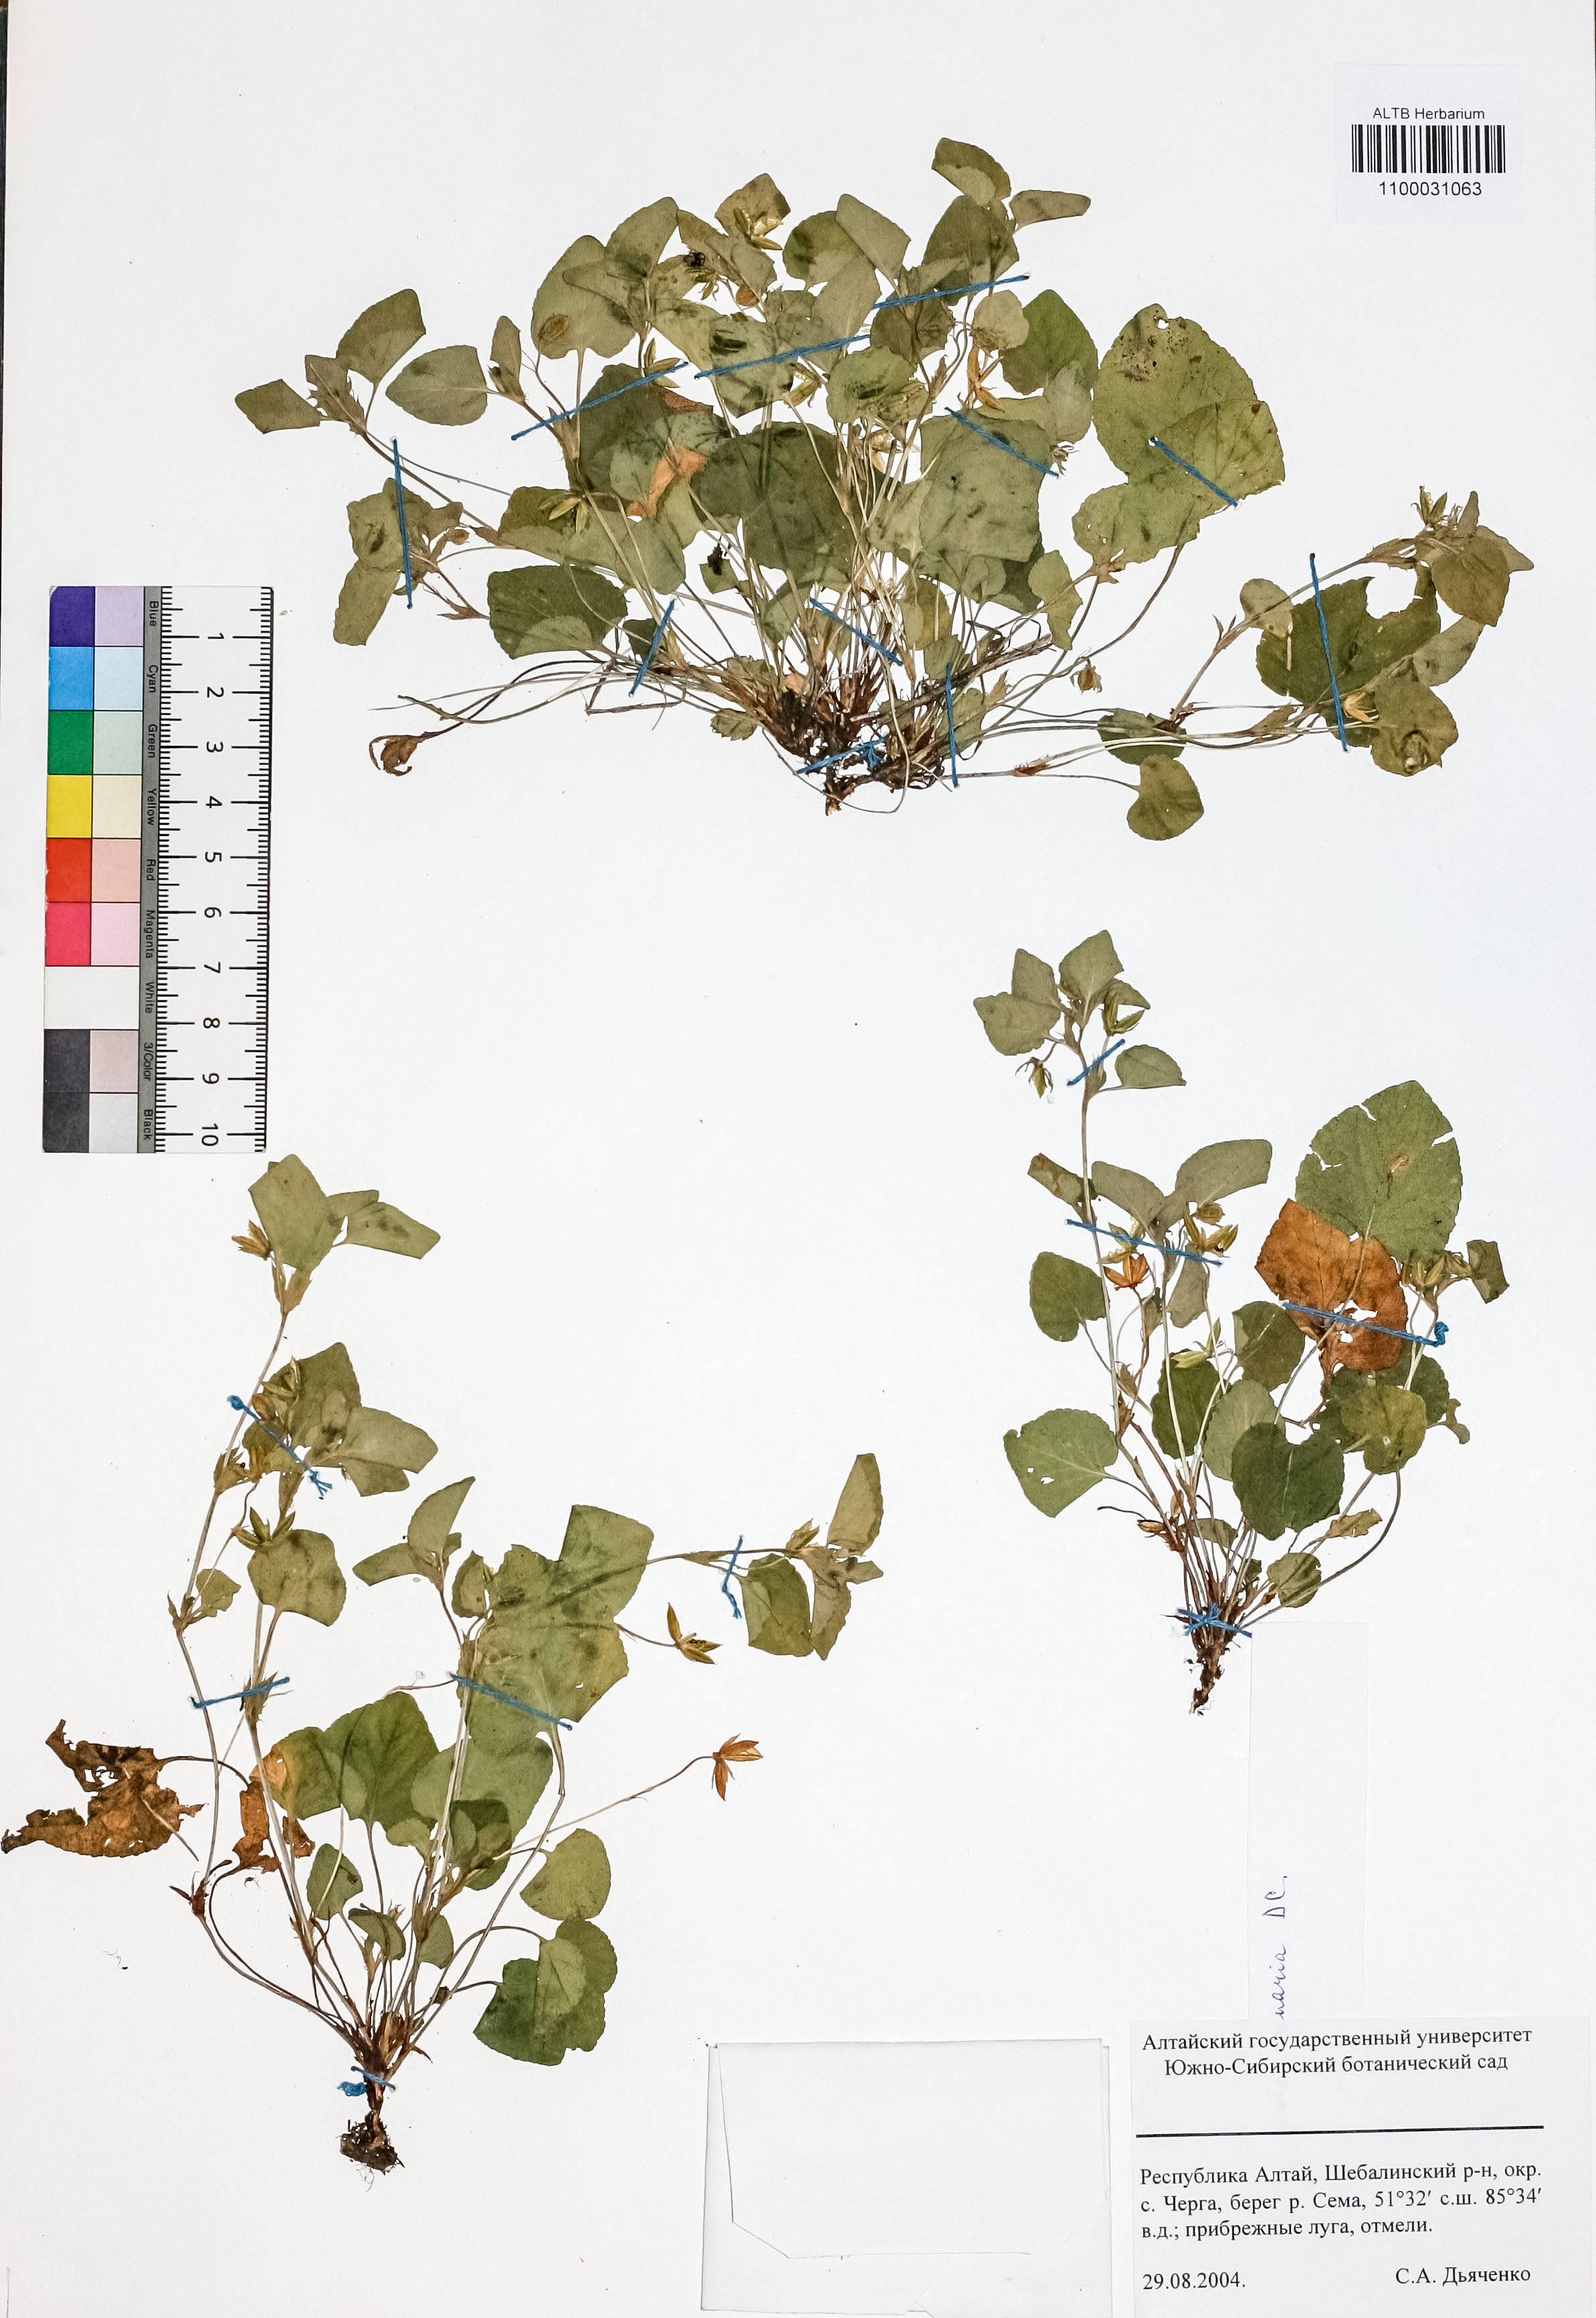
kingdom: Plantae
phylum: Tracheophyta
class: Magnoliopsida
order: Malpighiales
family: Violaceae
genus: Viola
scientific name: Viola rupestris
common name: Teesdale violet
